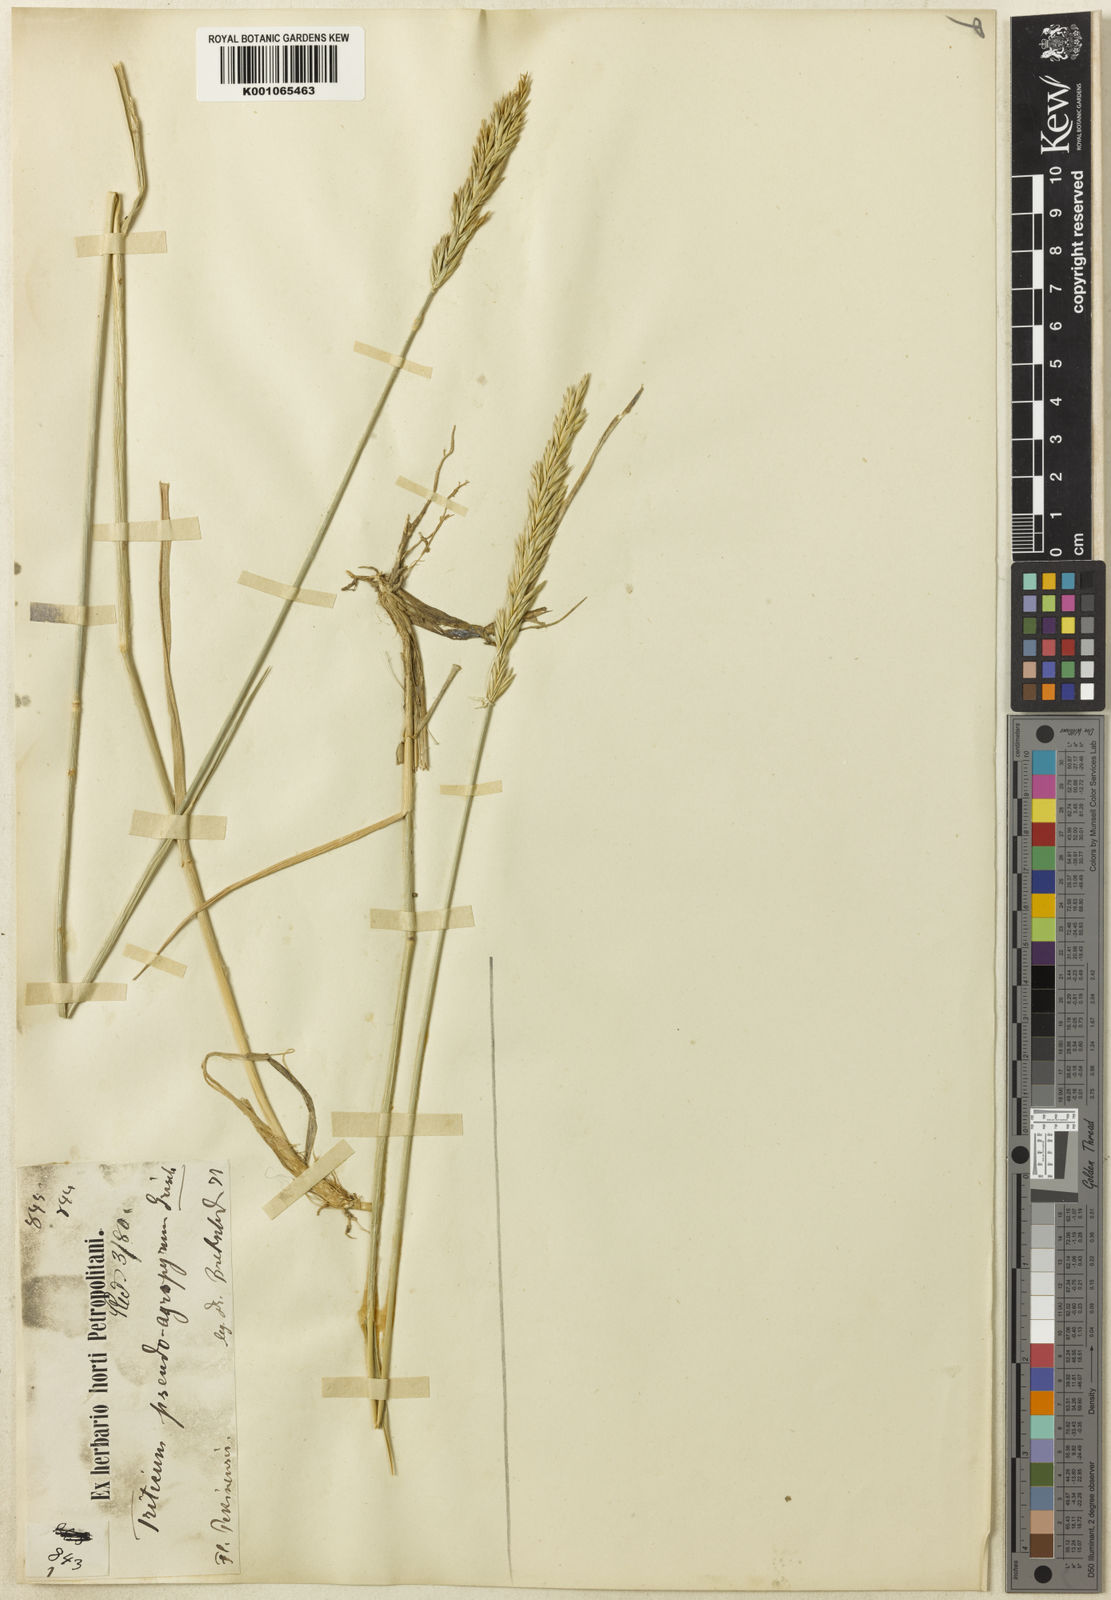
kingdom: Plantae
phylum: Tracheophyta
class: Liliopsida
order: Poales
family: Poaceae
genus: Leymus
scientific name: Leymus chinensis
